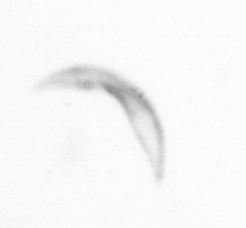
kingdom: Chromista
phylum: Ochrophyta
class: Bacillariophyceae
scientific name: Bacillariophyceae
